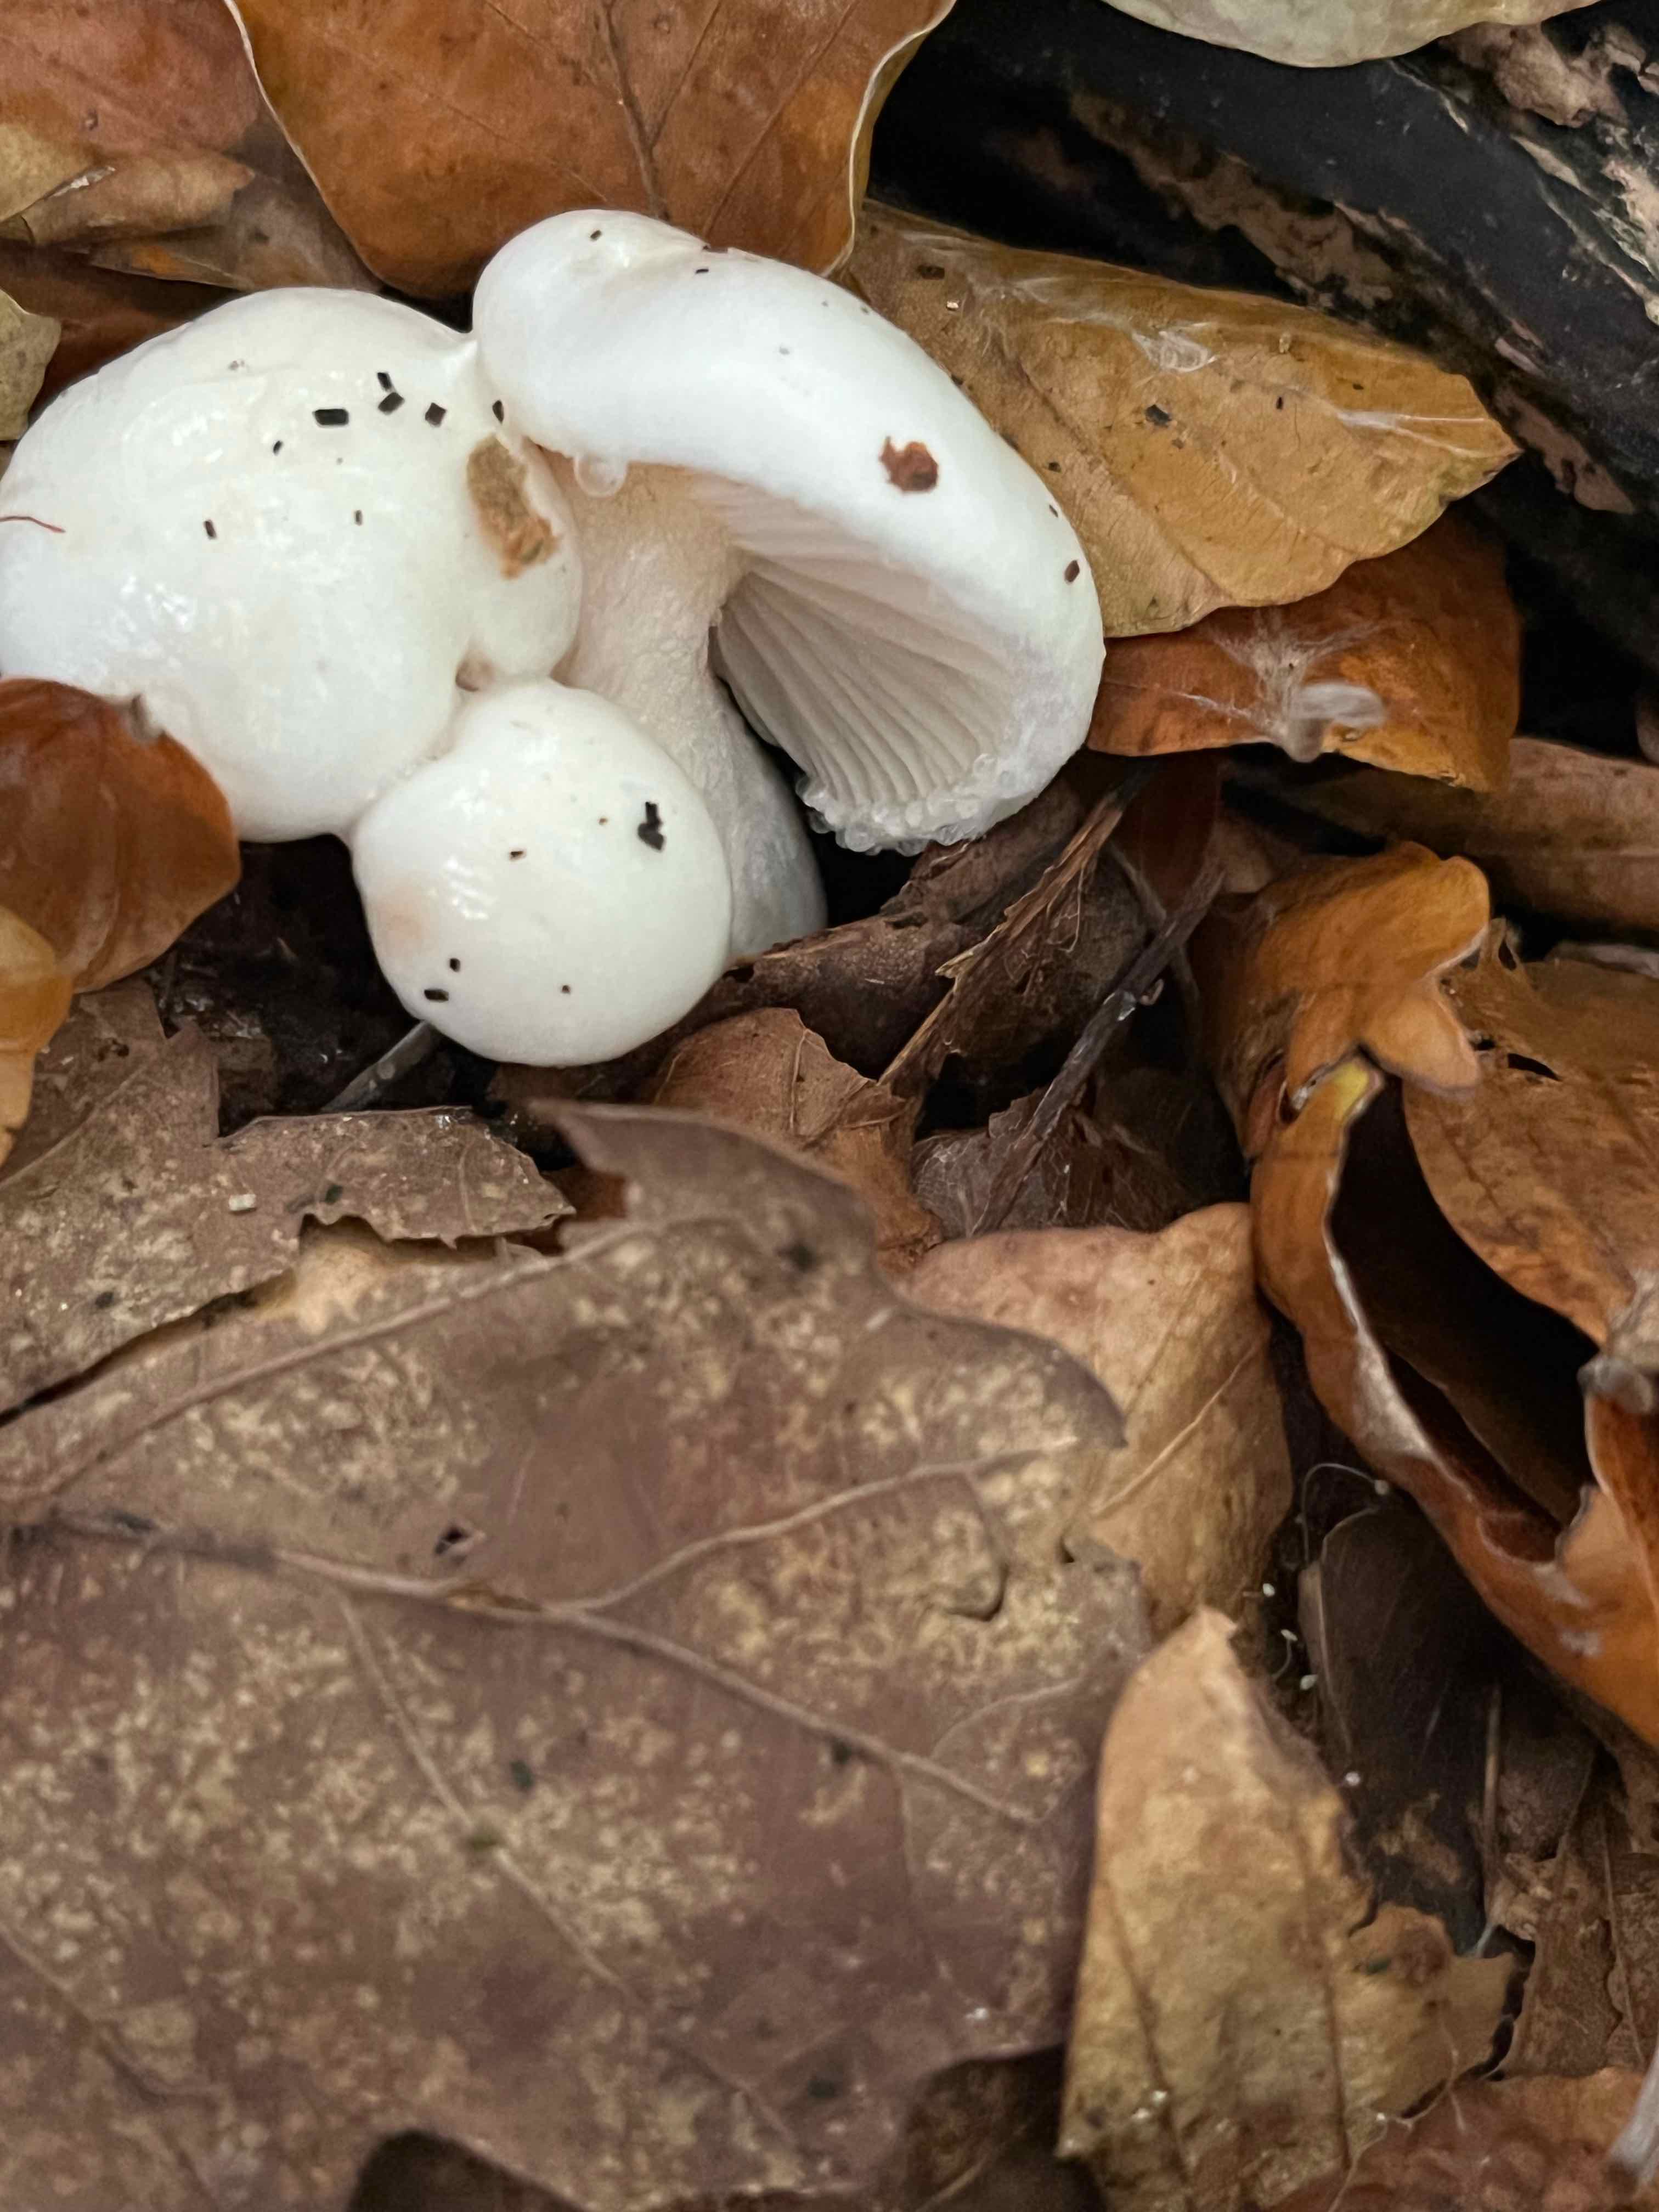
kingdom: Fungi
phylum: Basidiomycota
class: Agaricomycetes
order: Agaricales
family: Hygrophoraceae
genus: Hygrophorus
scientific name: Hygrophorus eburneus
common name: elfenbens-sneglehat
